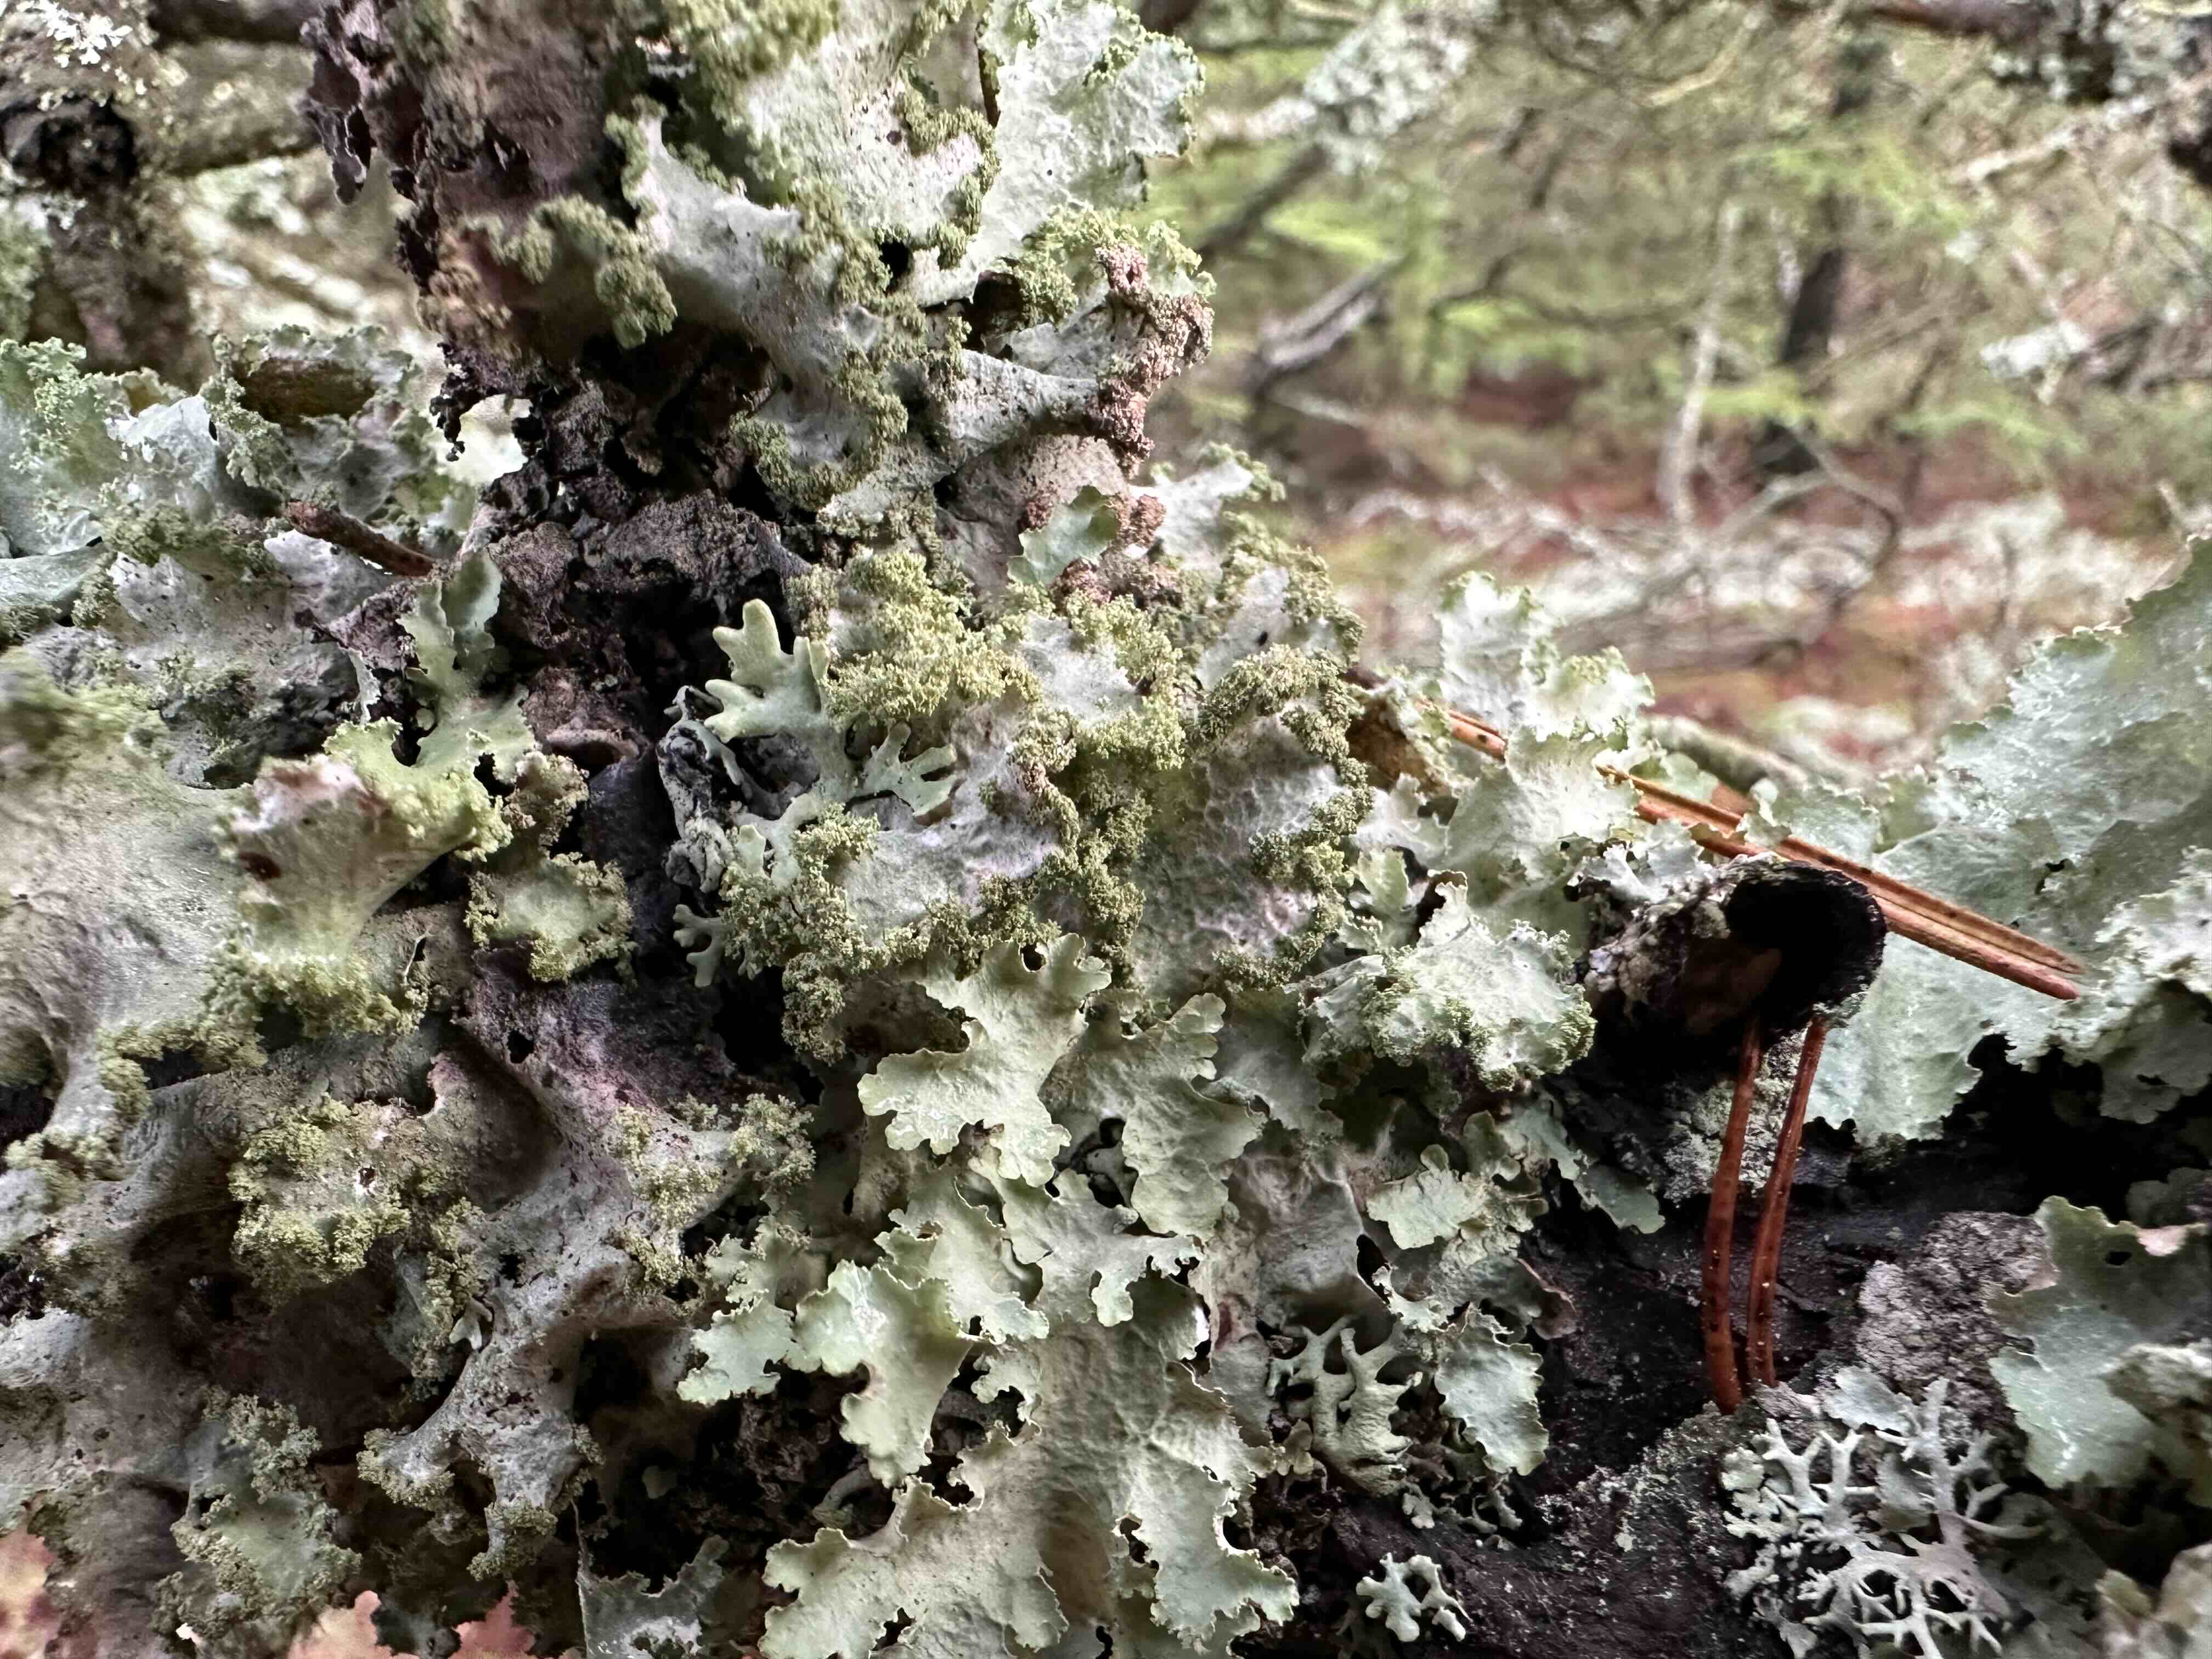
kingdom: Fungi
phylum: Ascomycota
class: Lecanoromycetes
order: Lecanorales
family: Parmeliaceae
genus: Platismatia
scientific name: Platismatia glauca
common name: blågrå papirlav
